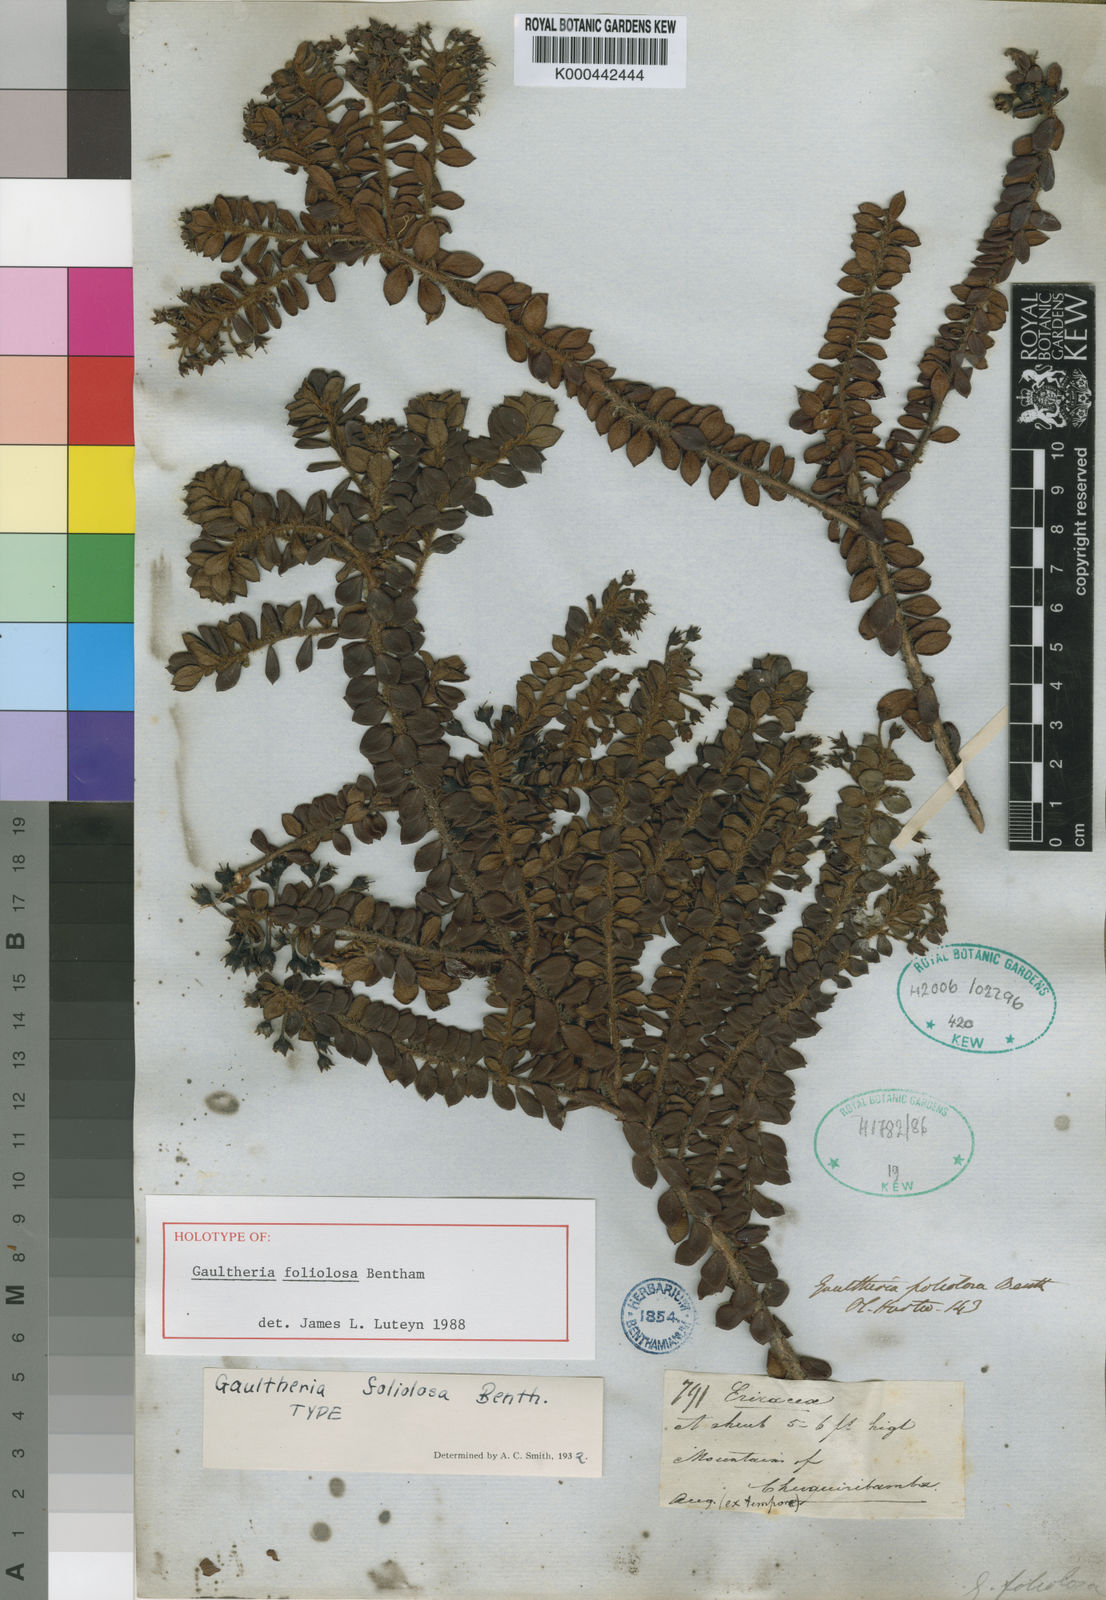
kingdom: Plantae
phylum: Tracheophyta
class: Magnoliopsida
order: Ericales
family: Ericaceae
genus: Gaultheria
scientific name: Gaultheria foliolosa
